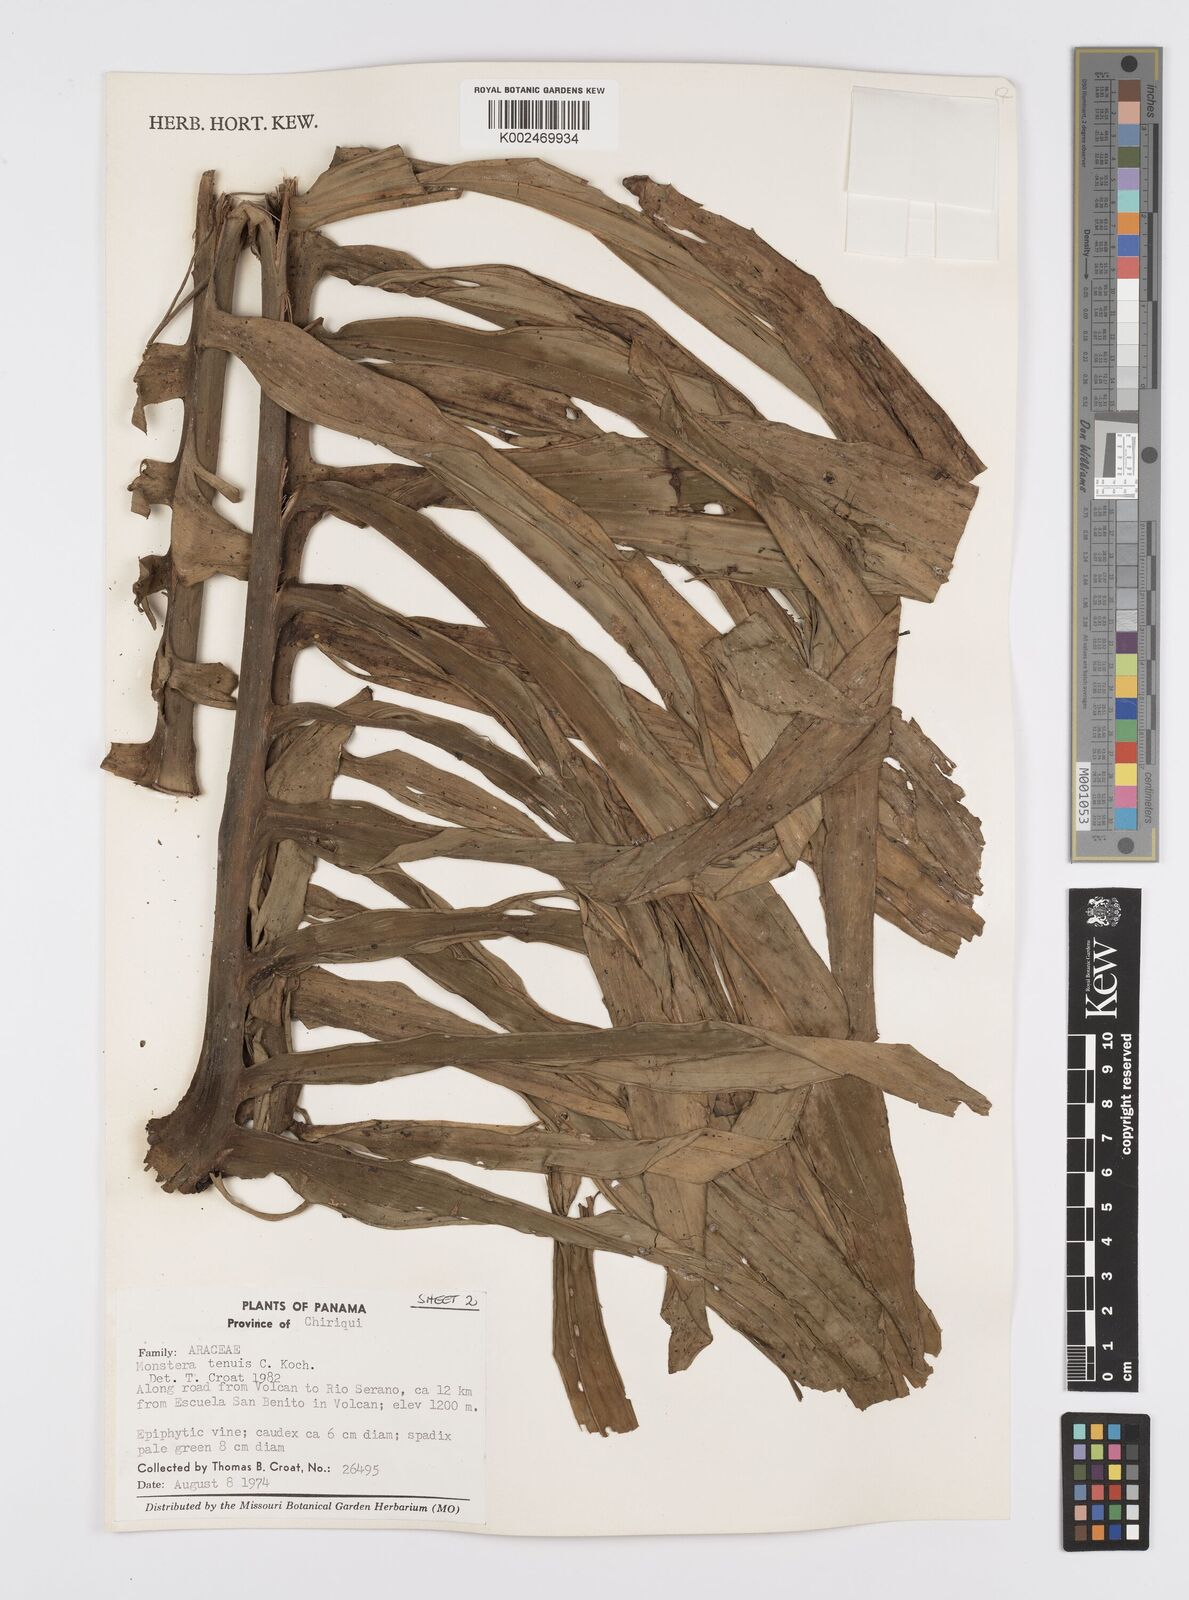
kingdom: Plantae
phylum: Tracheophyta
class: Liliopsida
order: Alismatales
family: Araceae
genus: Monstera
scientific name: Monstera tenuis
